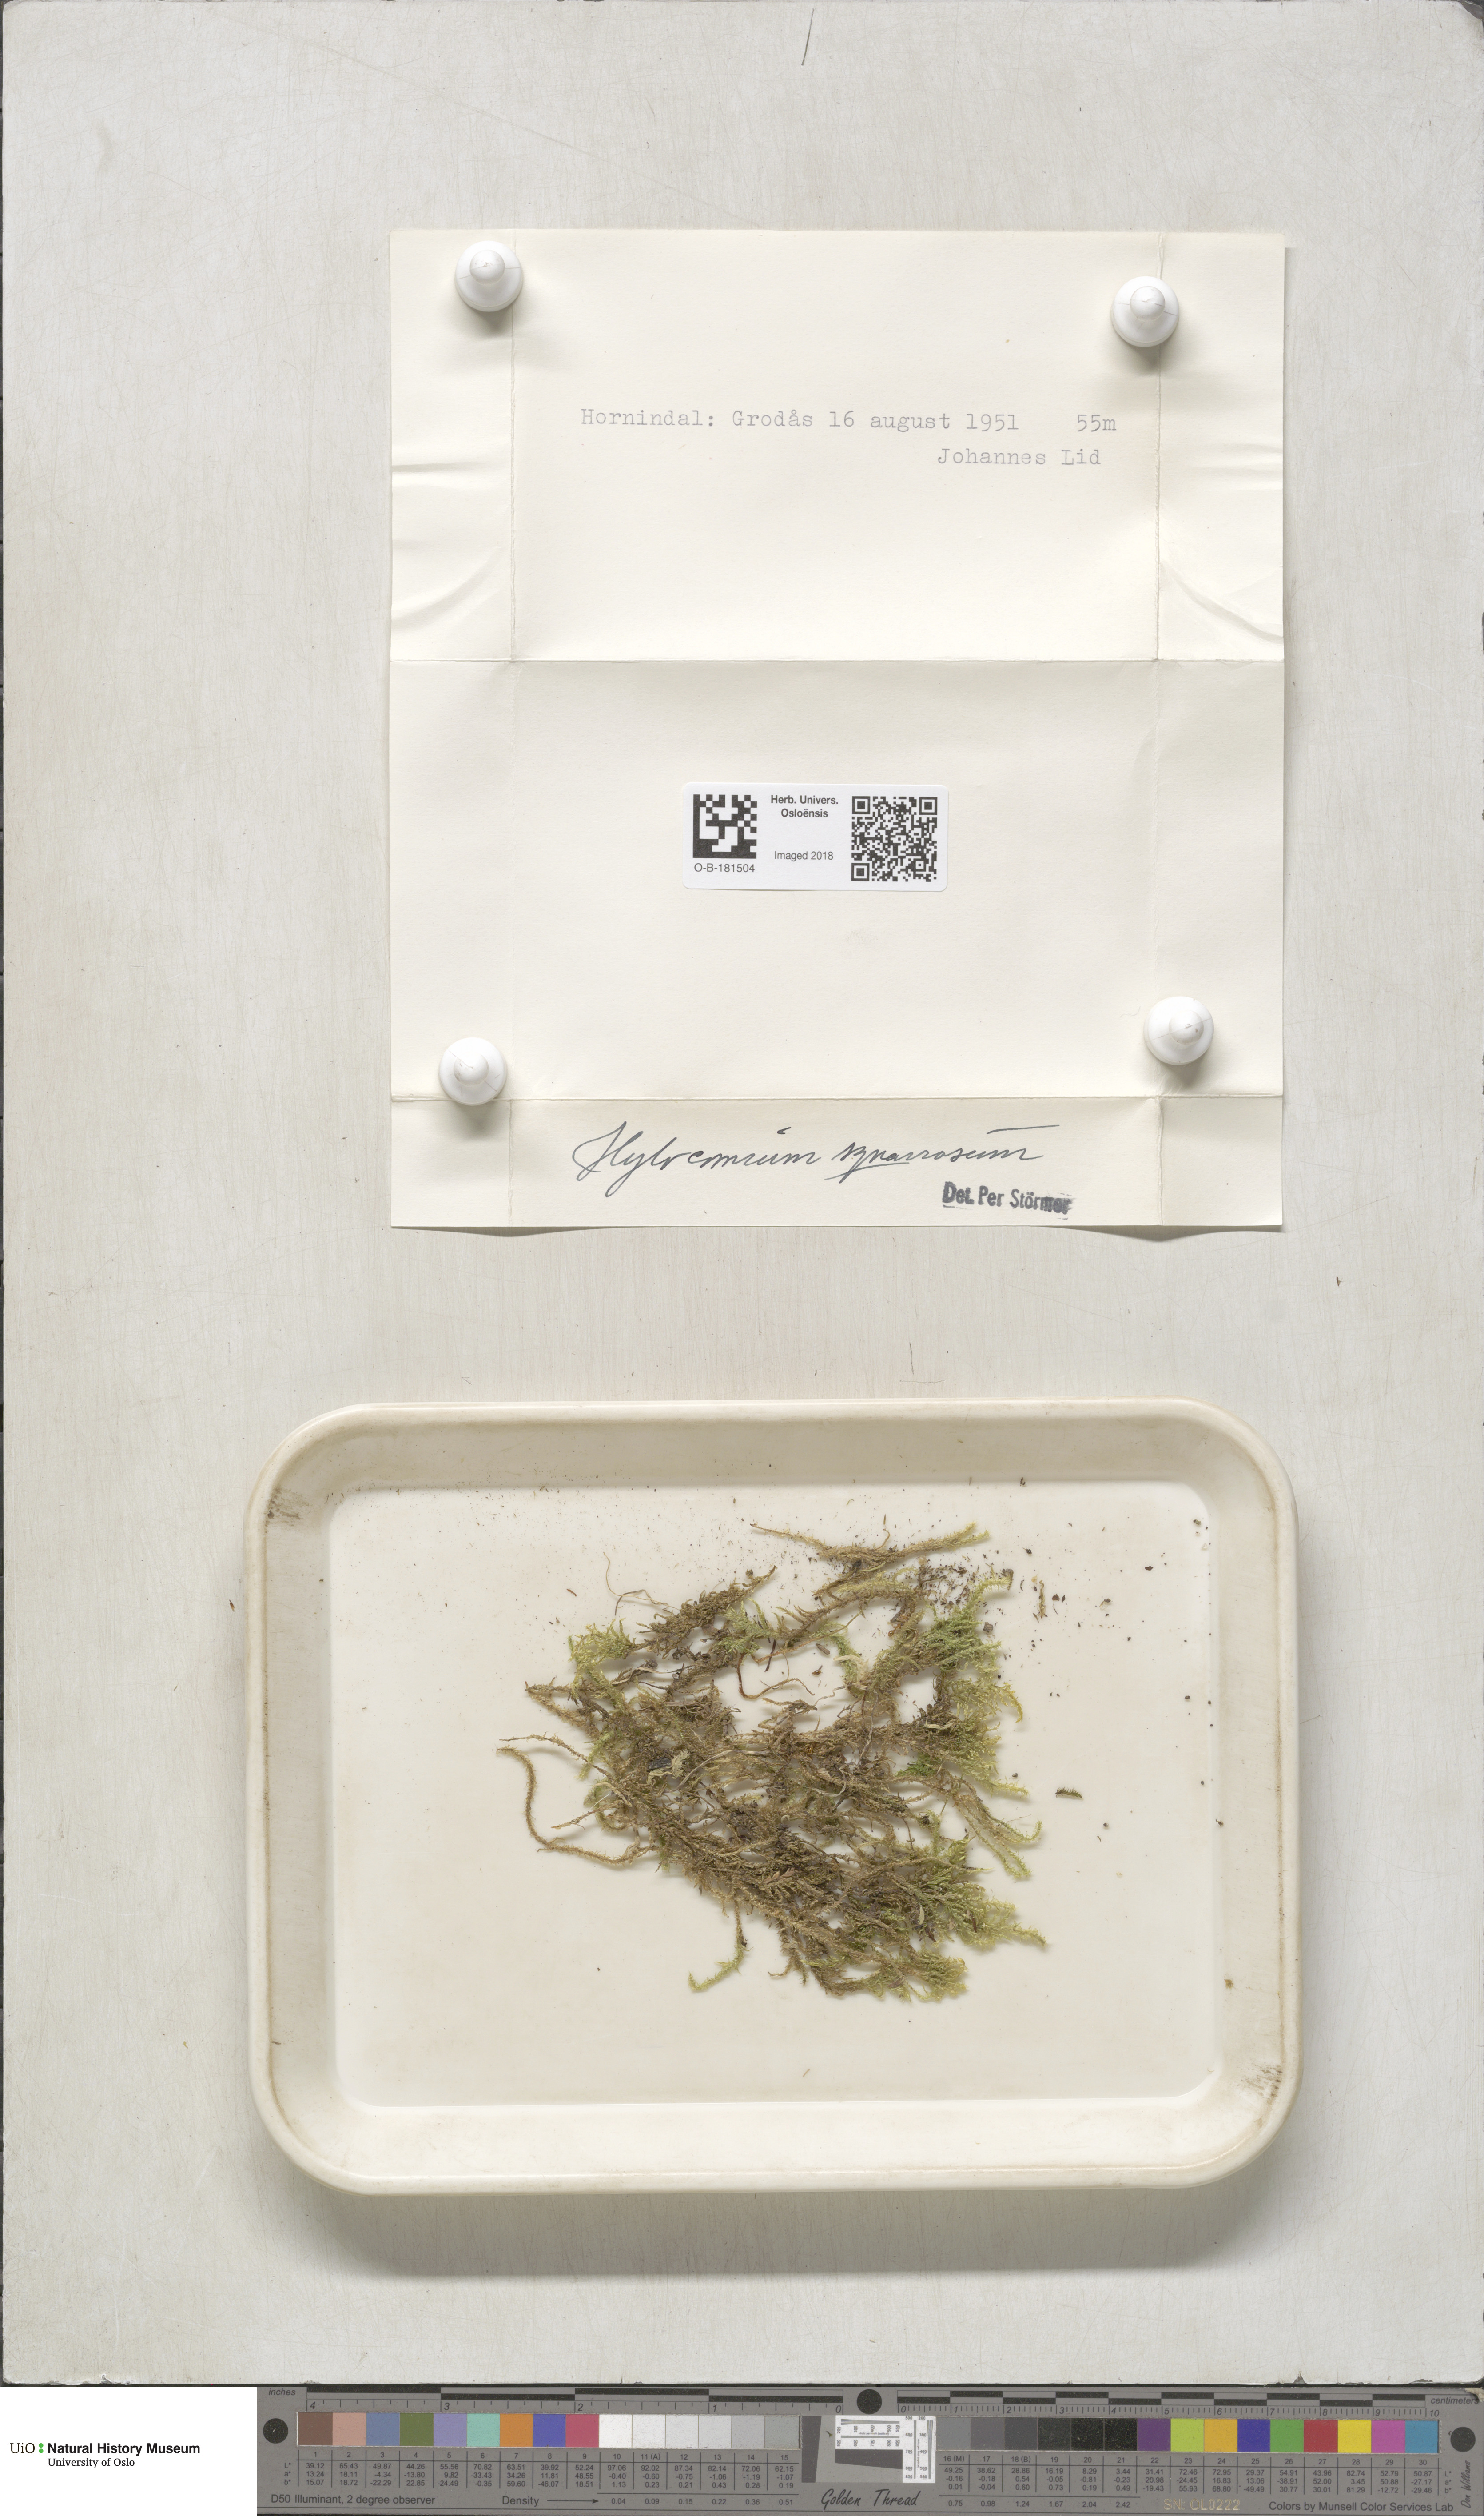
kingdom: Plantae
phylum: Bryophyta
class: Bryopsida
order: Hypnales
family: Hylocomiaceae
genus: Rhytidiadelphus
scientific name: Rhytidiadelphus squarrosus
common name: Springy turf-moss
